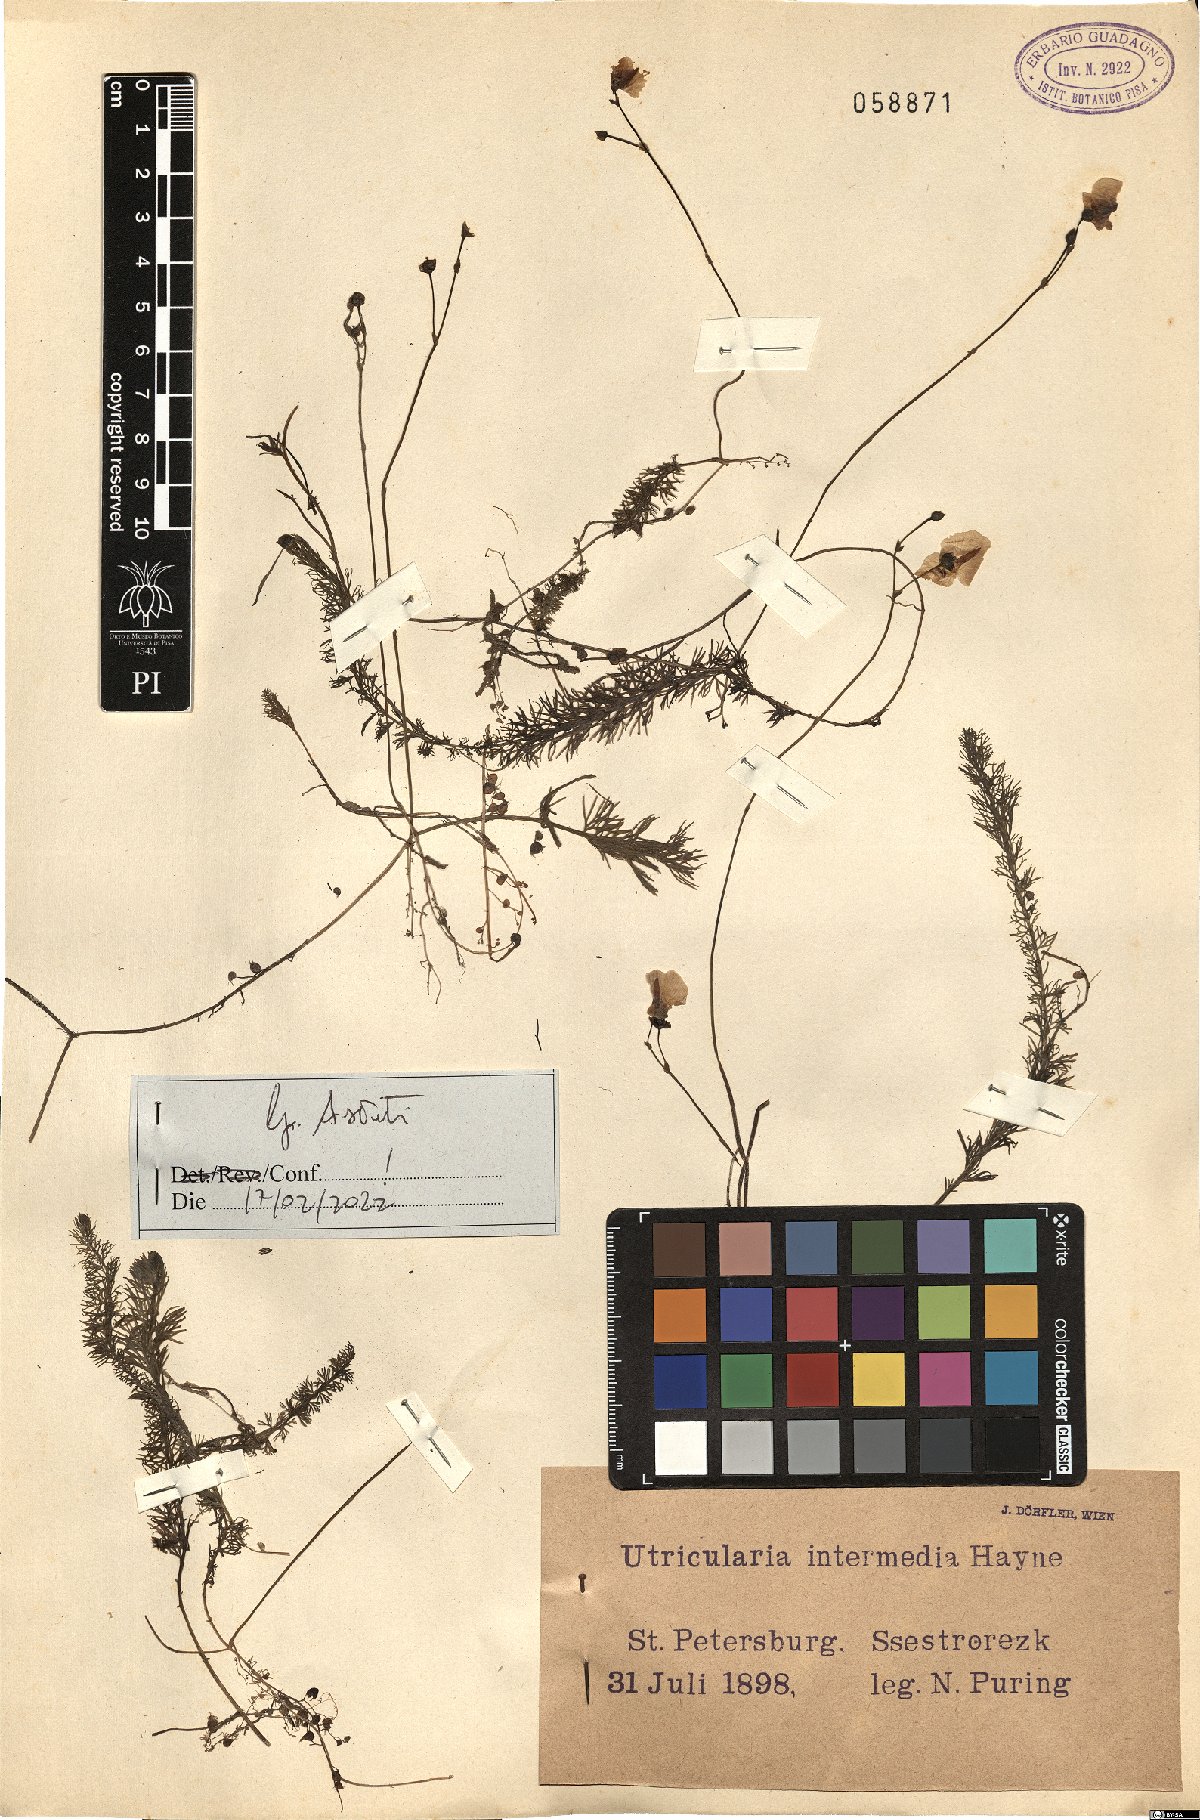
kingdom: Plantae
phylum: Tracheophyta
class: Magnoliopsida
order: Lamiales
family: Lentibulariaceae
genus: Utricularia
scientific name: Utricularia intermedia
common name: Intermediate bladderwort
